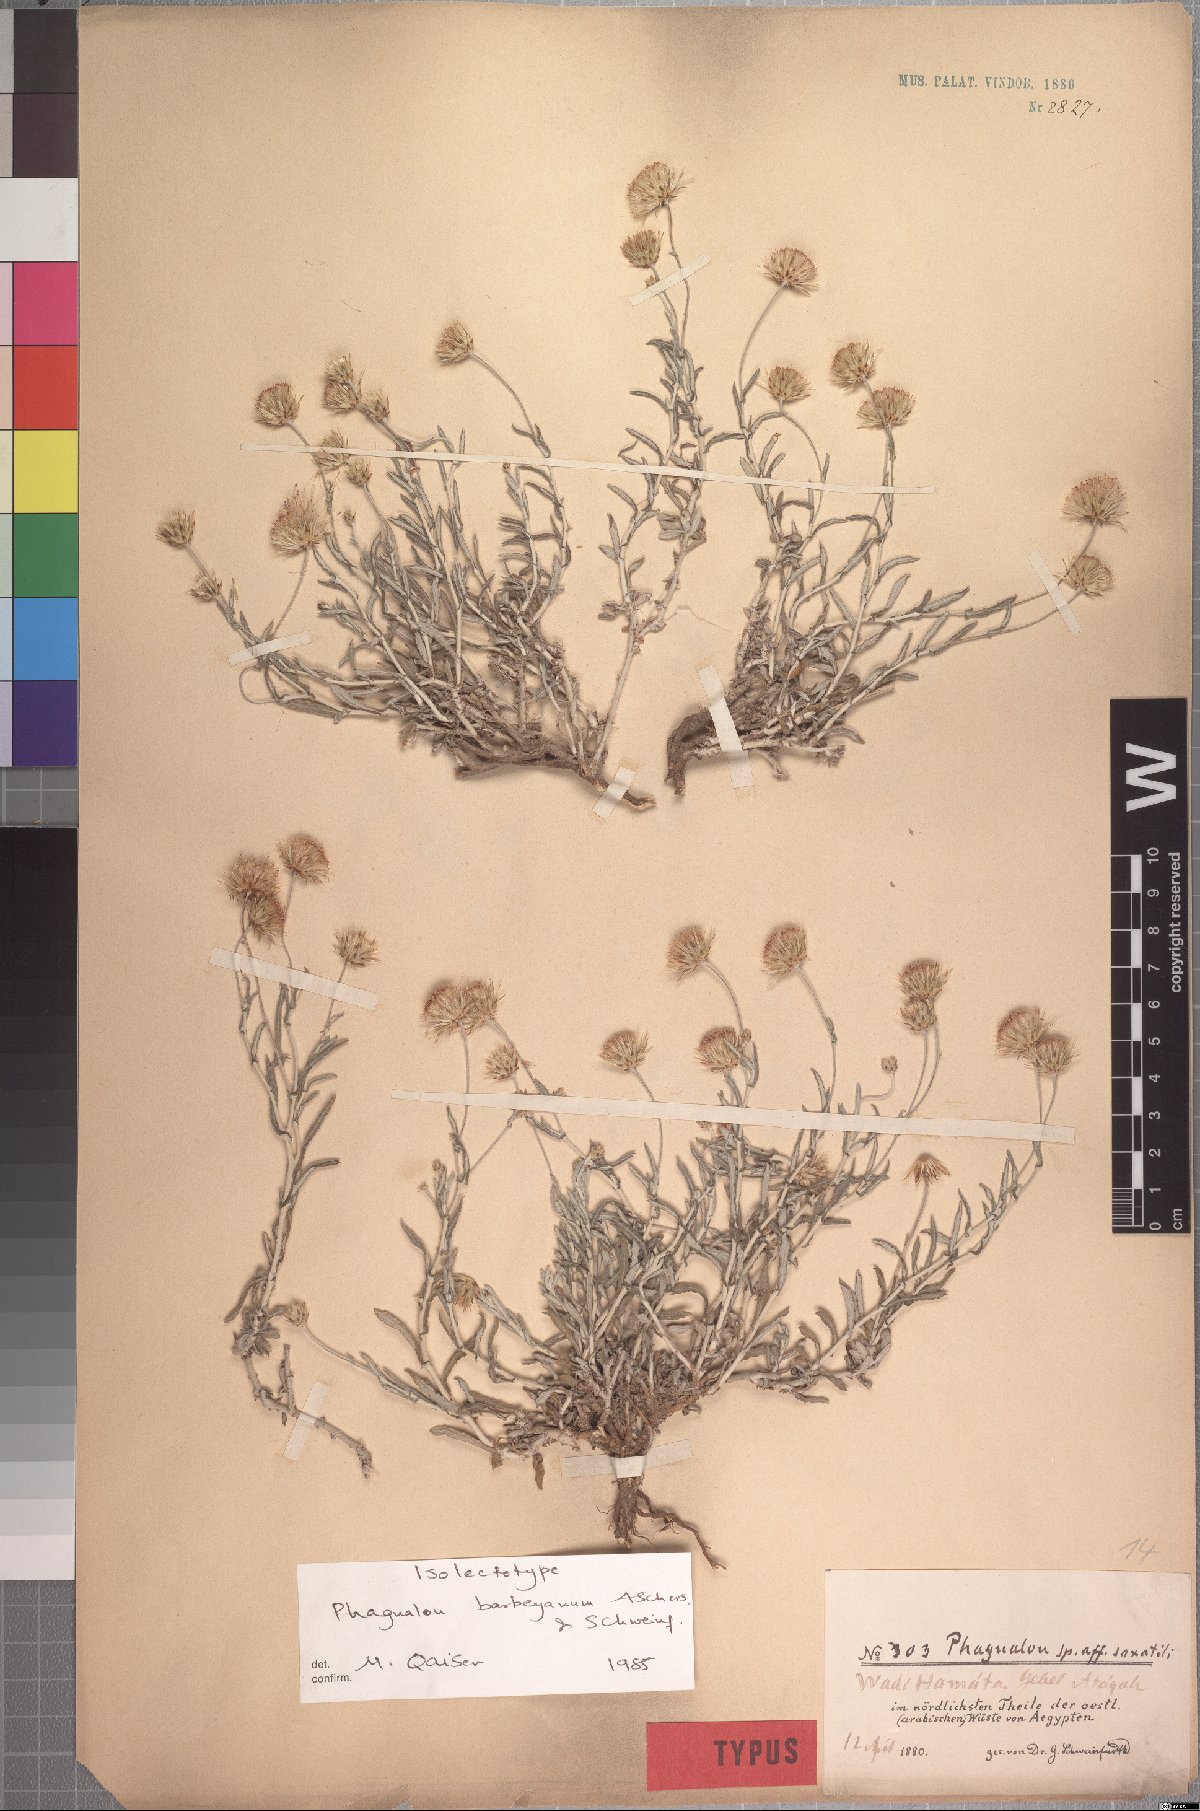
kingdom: Plantae
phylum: Tracheophyta
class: Magnoliopsida
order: Asterales
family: Asteraceae
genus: Phagnalon
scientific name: Phagnalon barbeyanum
